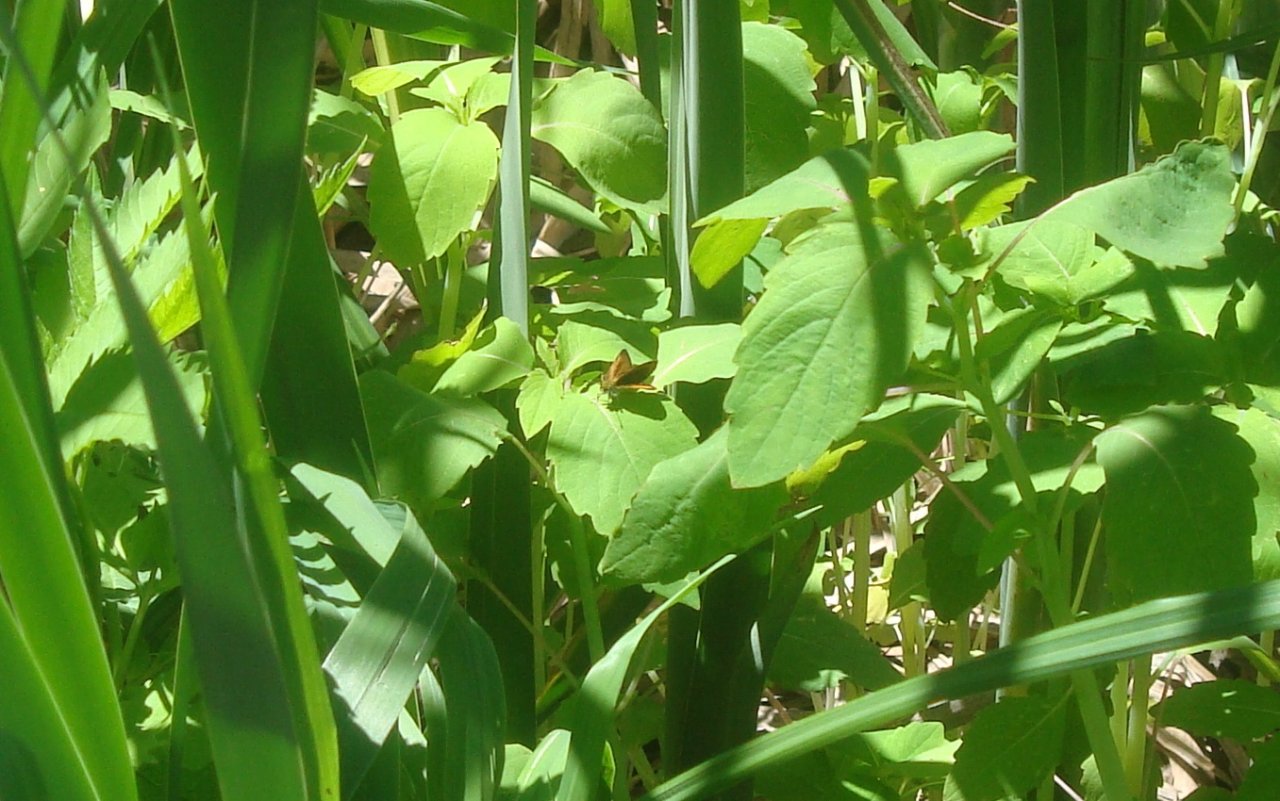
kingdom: Animalia
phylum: Arthropoda
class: Insecta
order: Lepidoptera
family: Hesperiidae
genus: Ancyloxypha
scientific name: Ancyloxypha numitor
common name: Least Skipper
